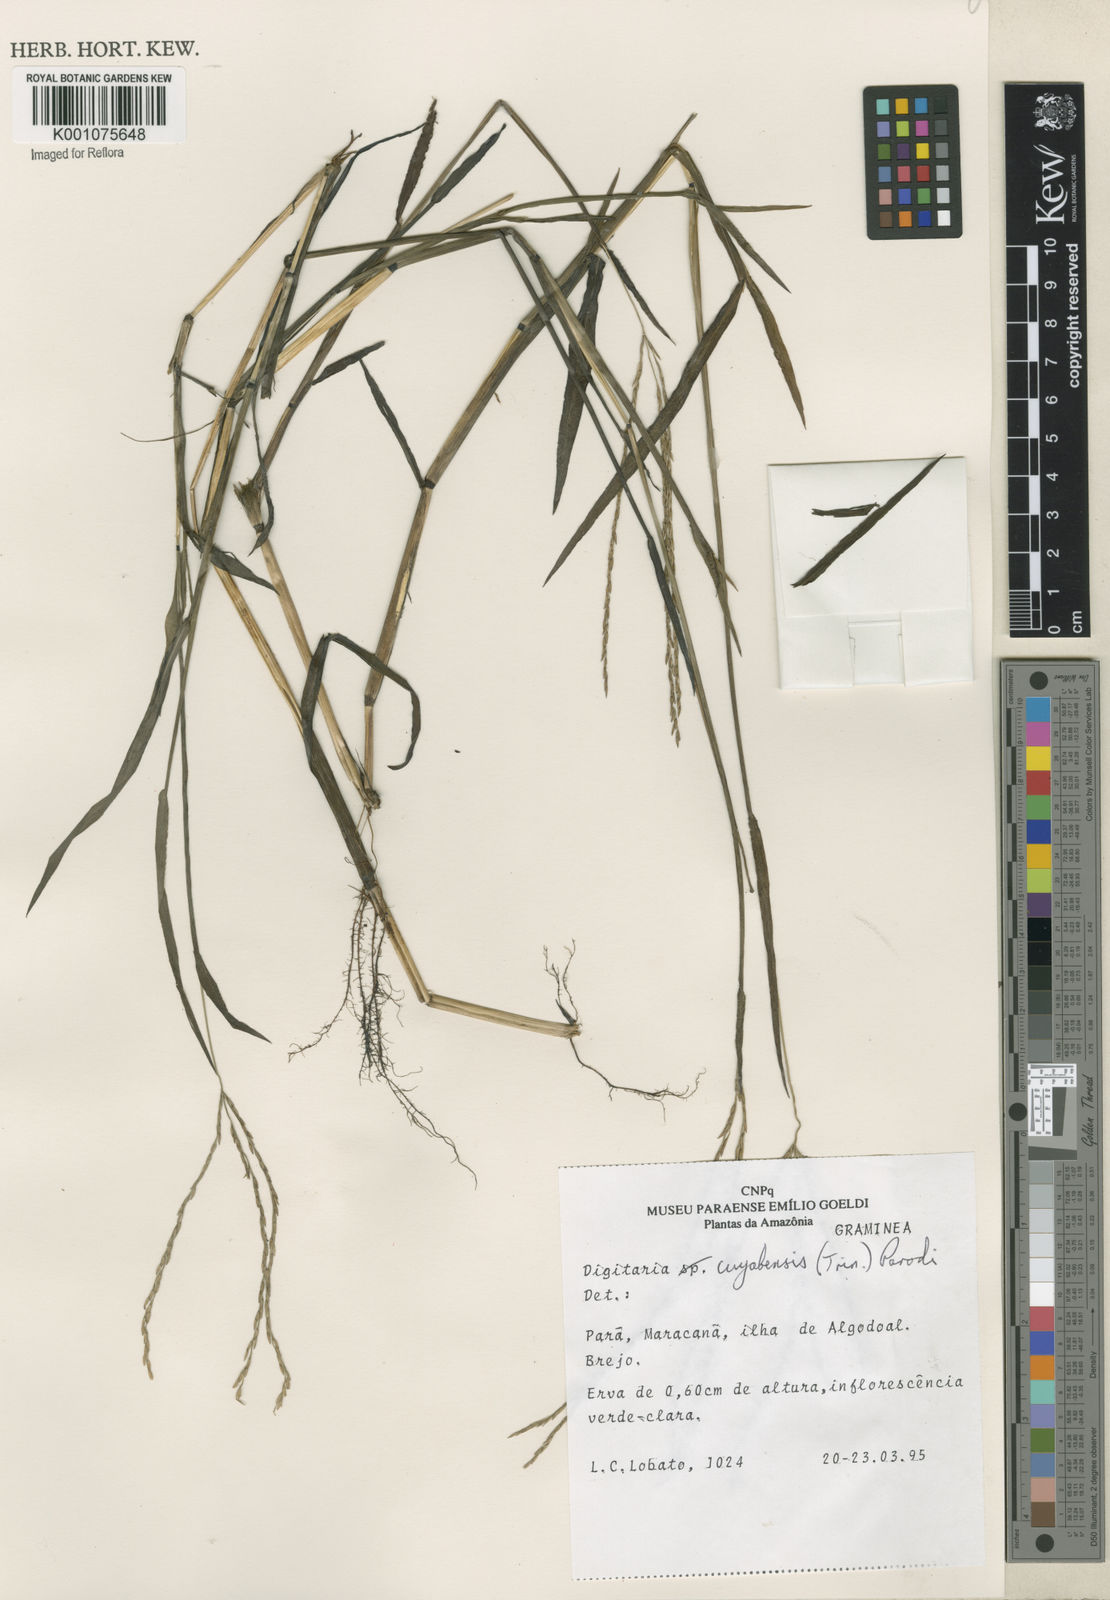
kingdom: Plantae
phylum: Tracheophyta
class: Liliopsida
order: Poales
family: Poaceae
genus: Digitaria
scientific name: Digitaria cuyabensis
